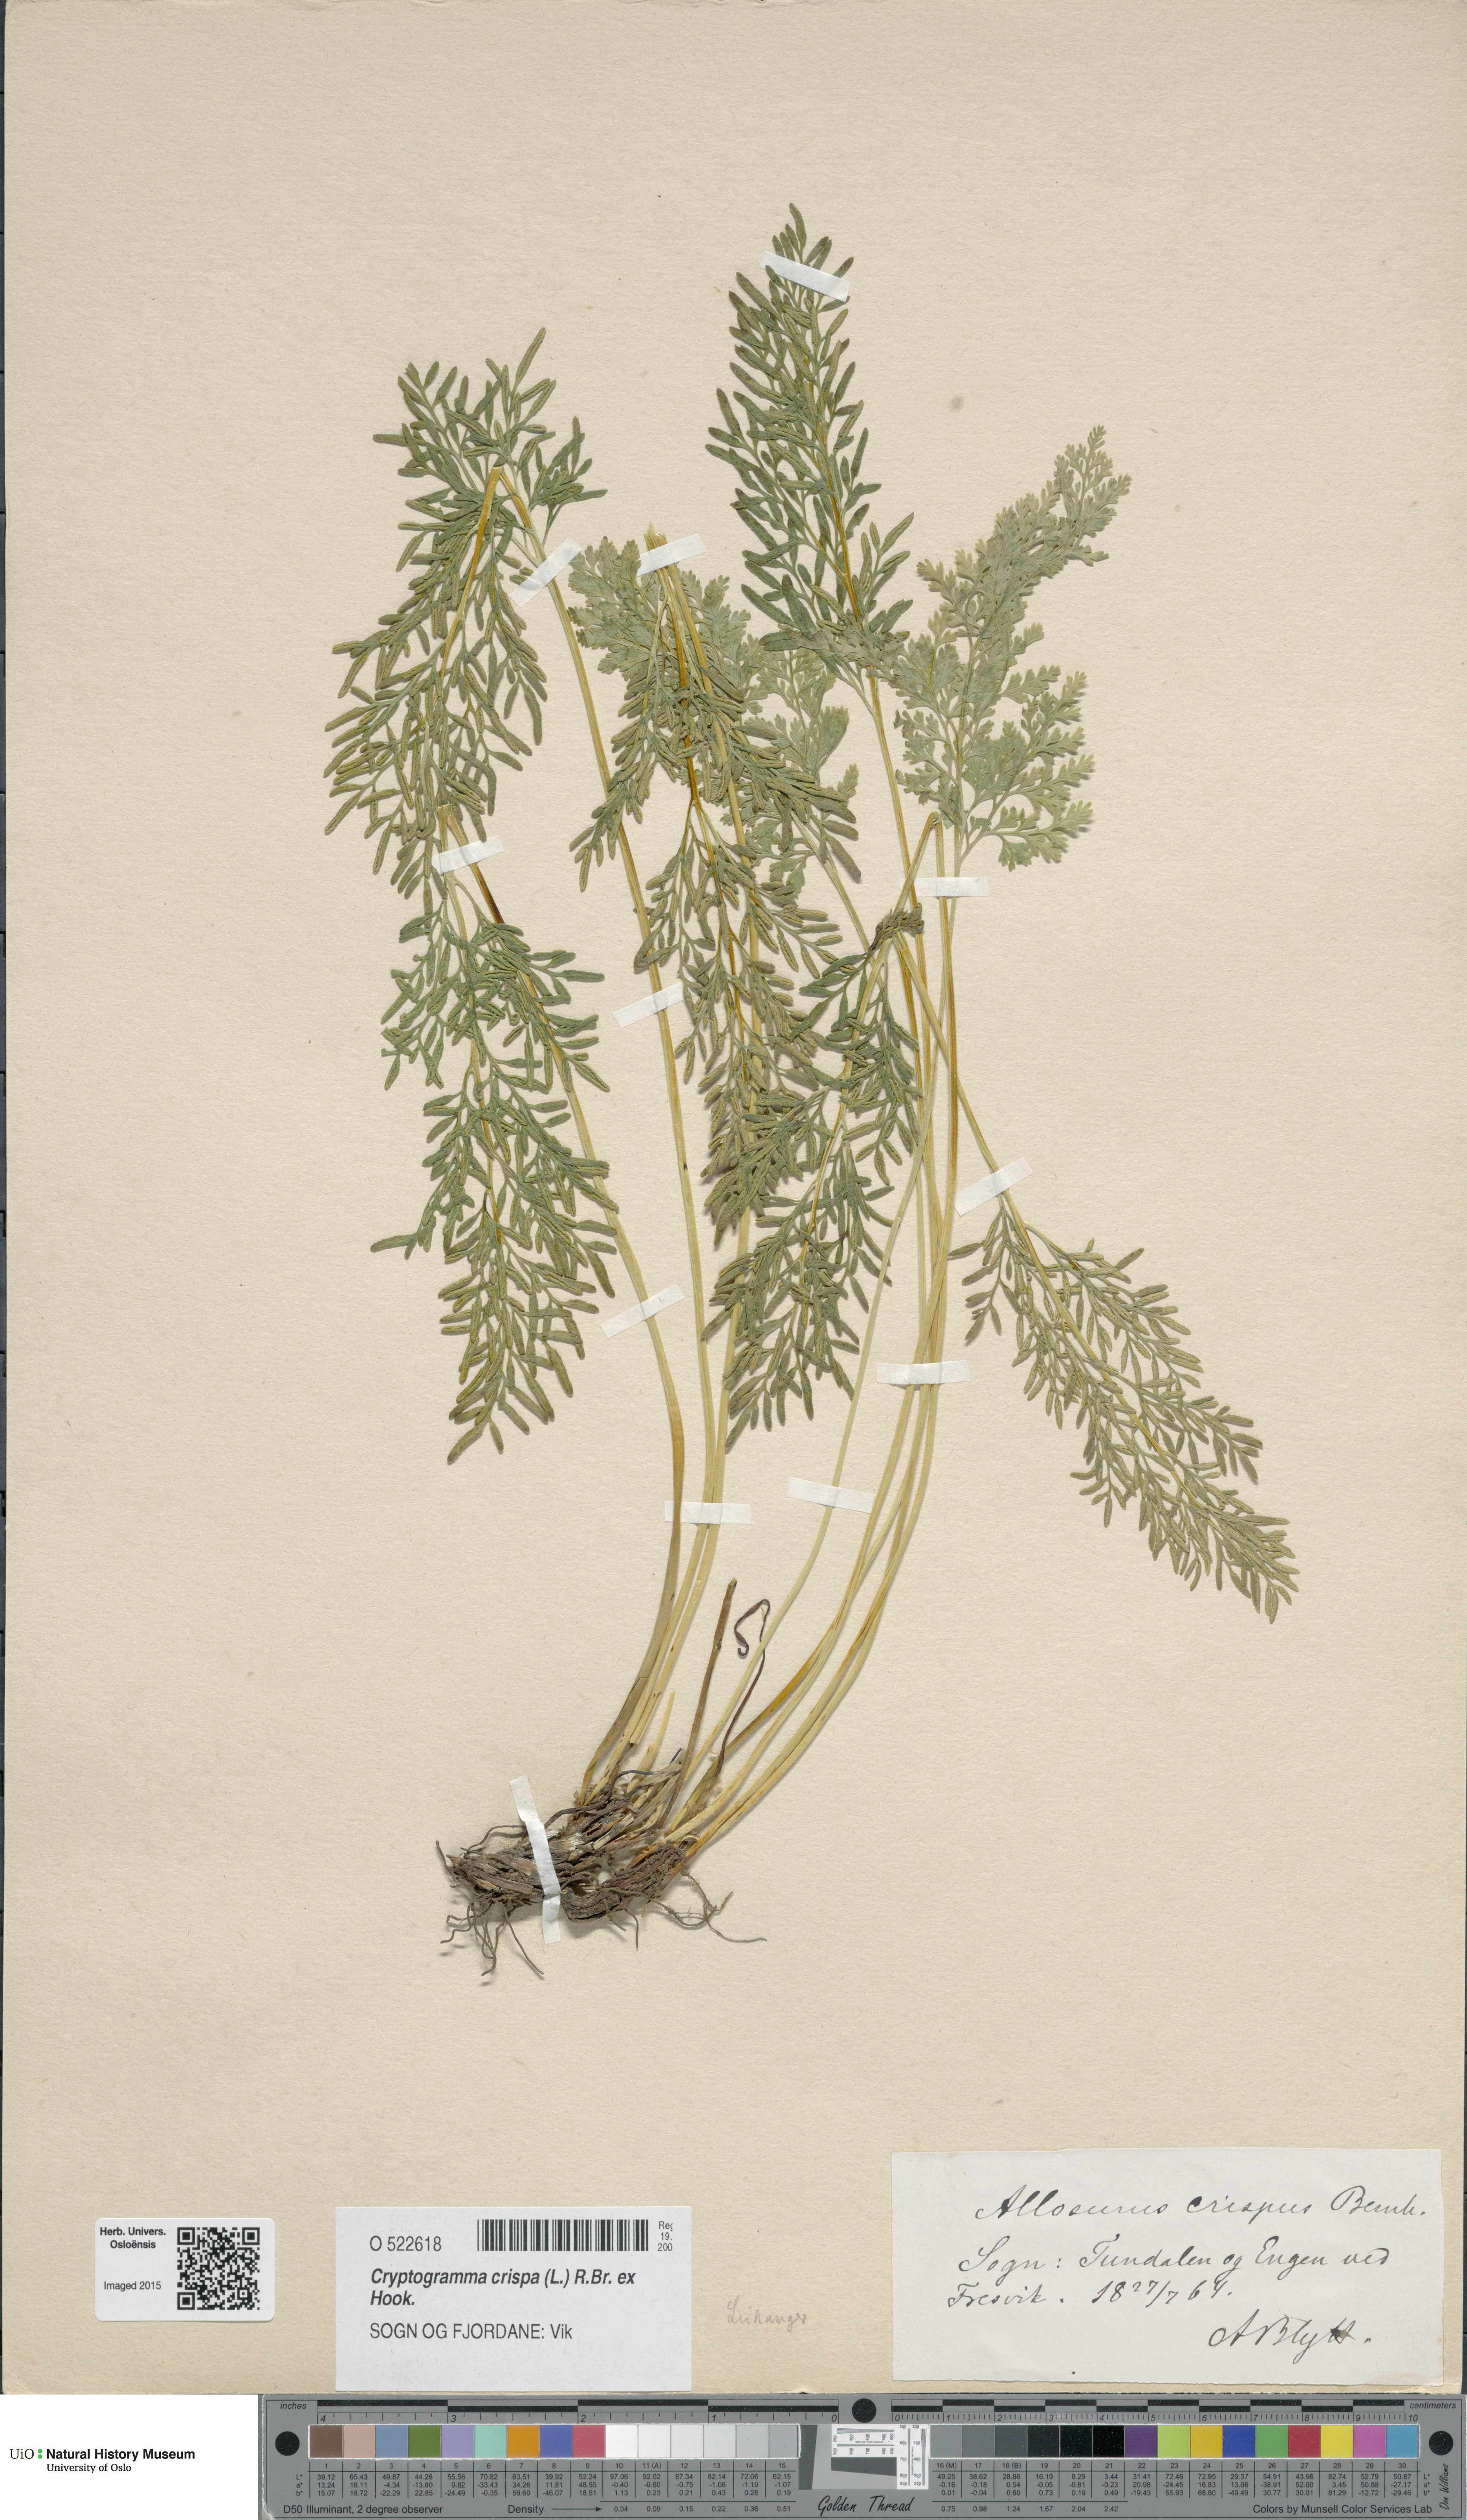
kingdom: Plantae
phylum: Tracheophyta
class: Polypodiopsida
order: Polypodiales
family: Pteridaceae
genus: Cryptogramma
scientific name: Cryptogramma crispa
